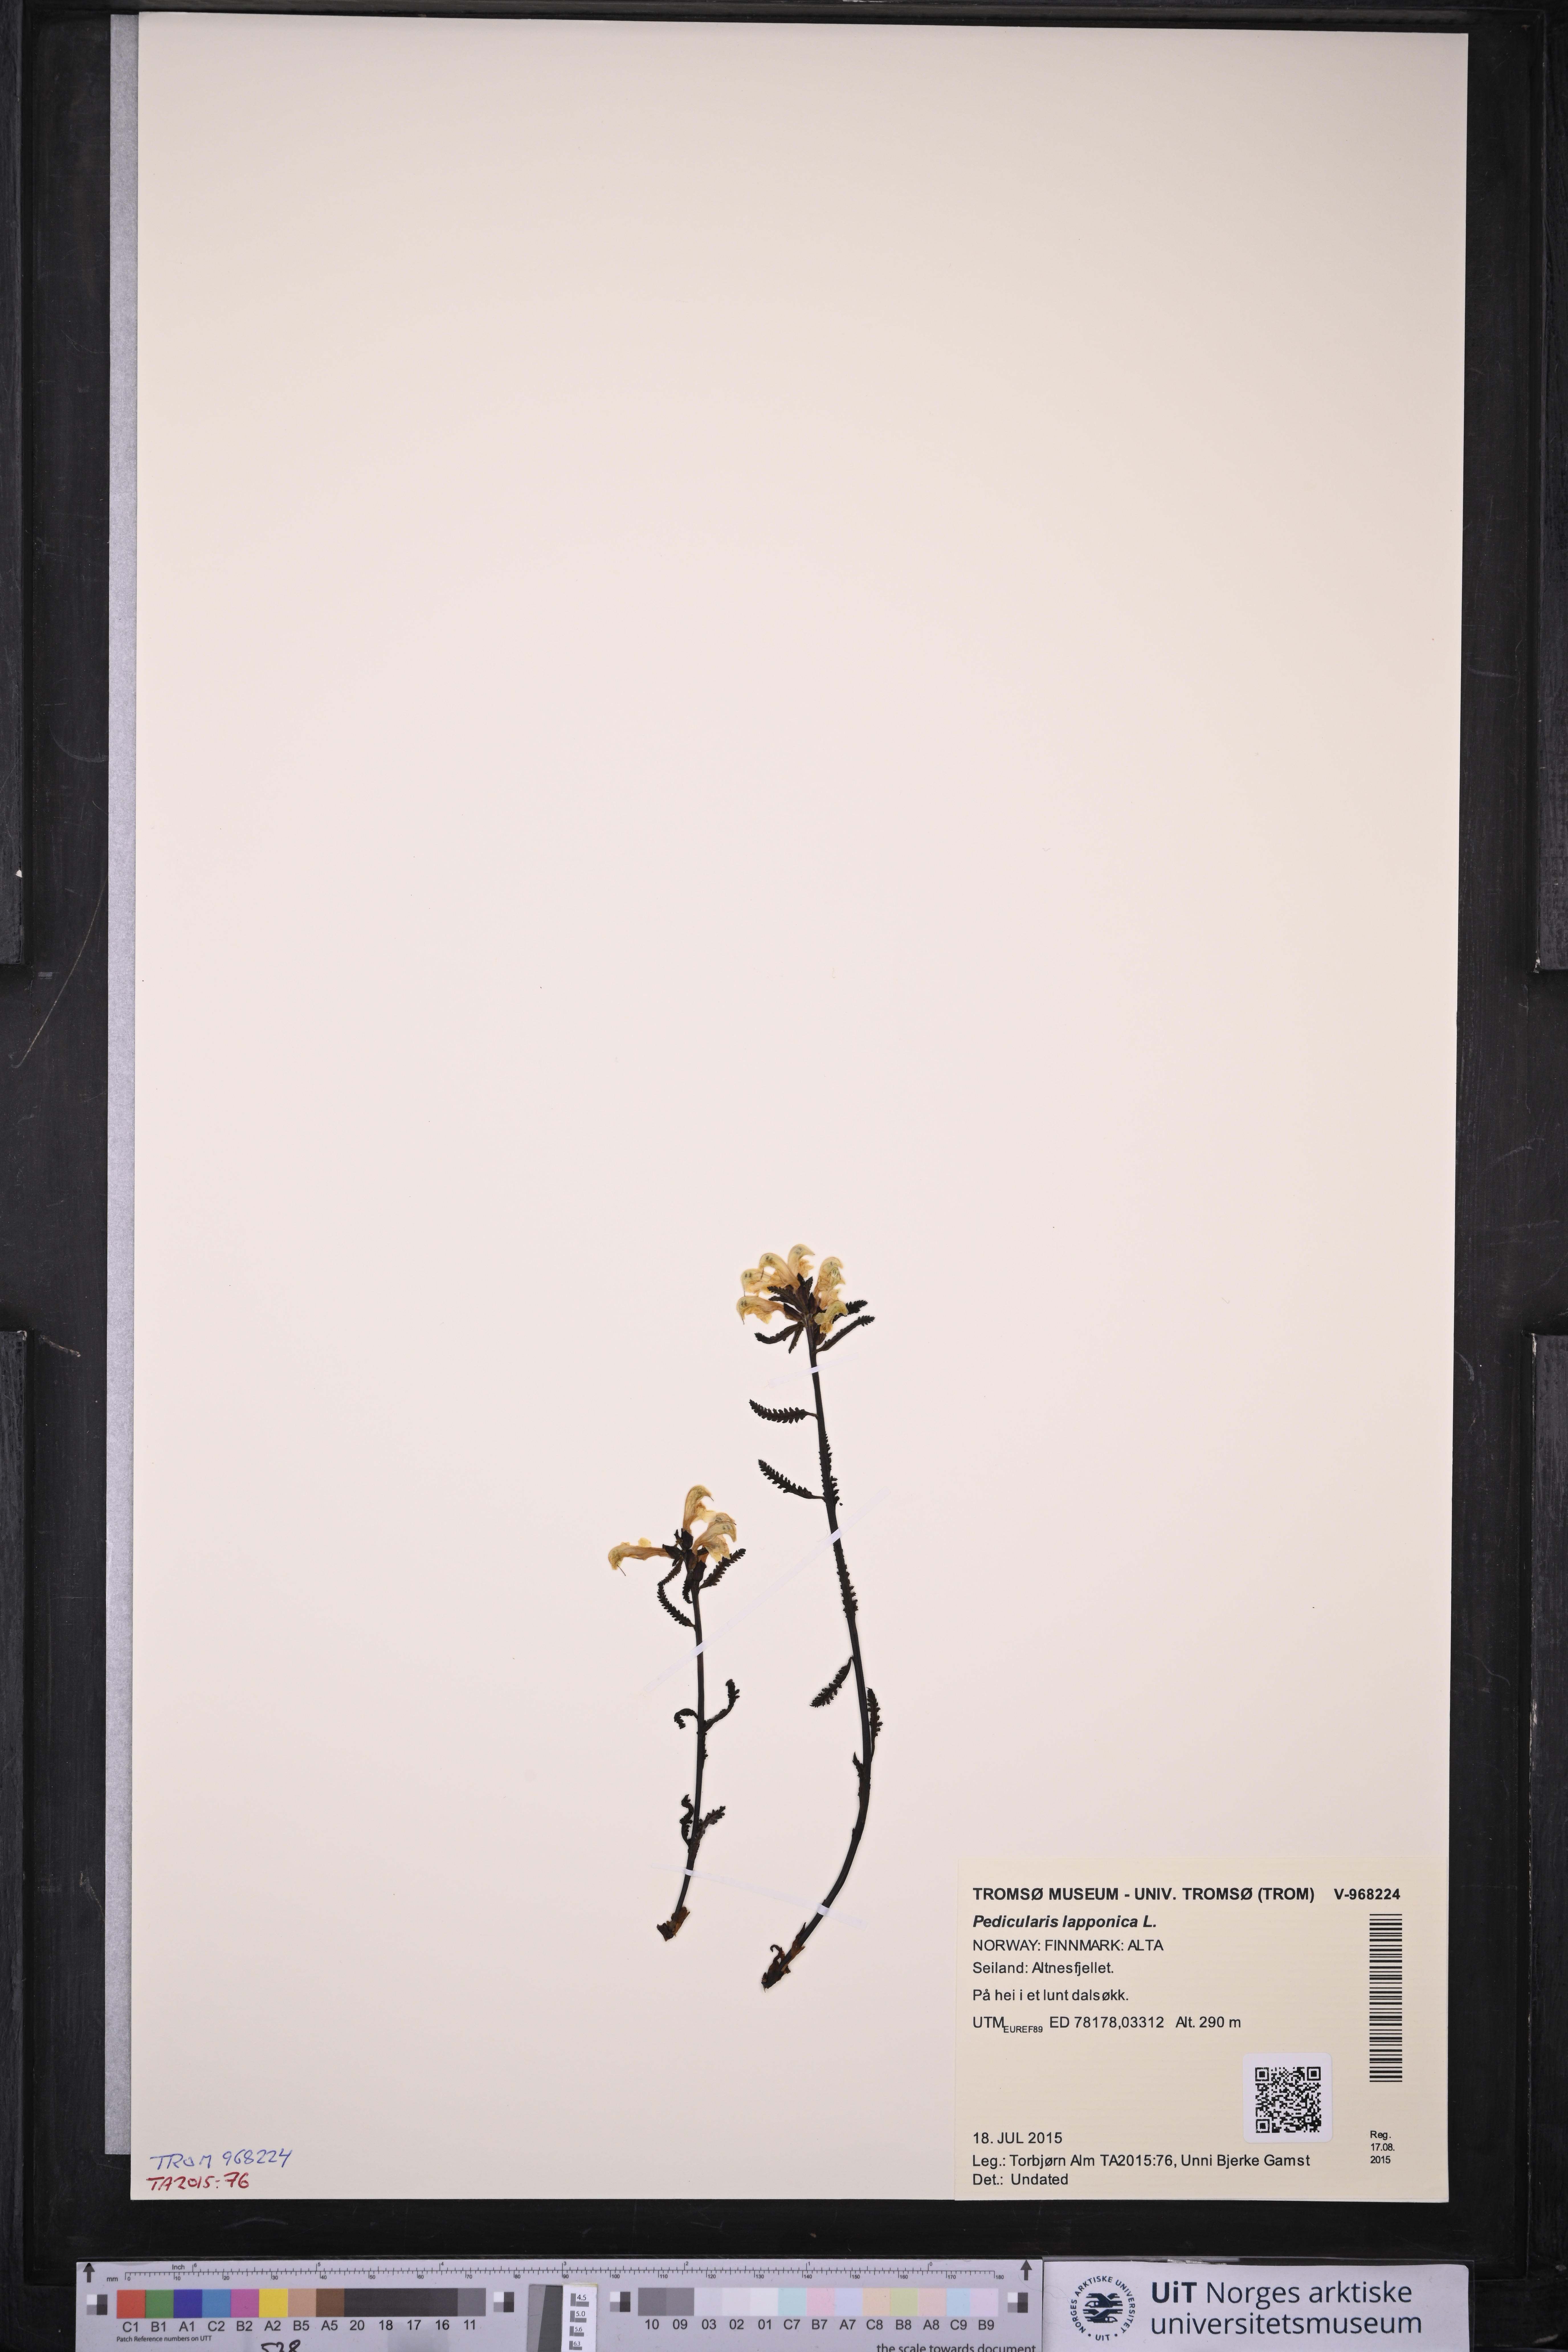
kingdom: Plantae
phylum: Tracheophyta
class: Magnoliopsida
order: Lamiales
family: Orobanchaceae
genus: Pedicularis
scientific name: Pedicularis lapponica
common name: Lapland lousewort
